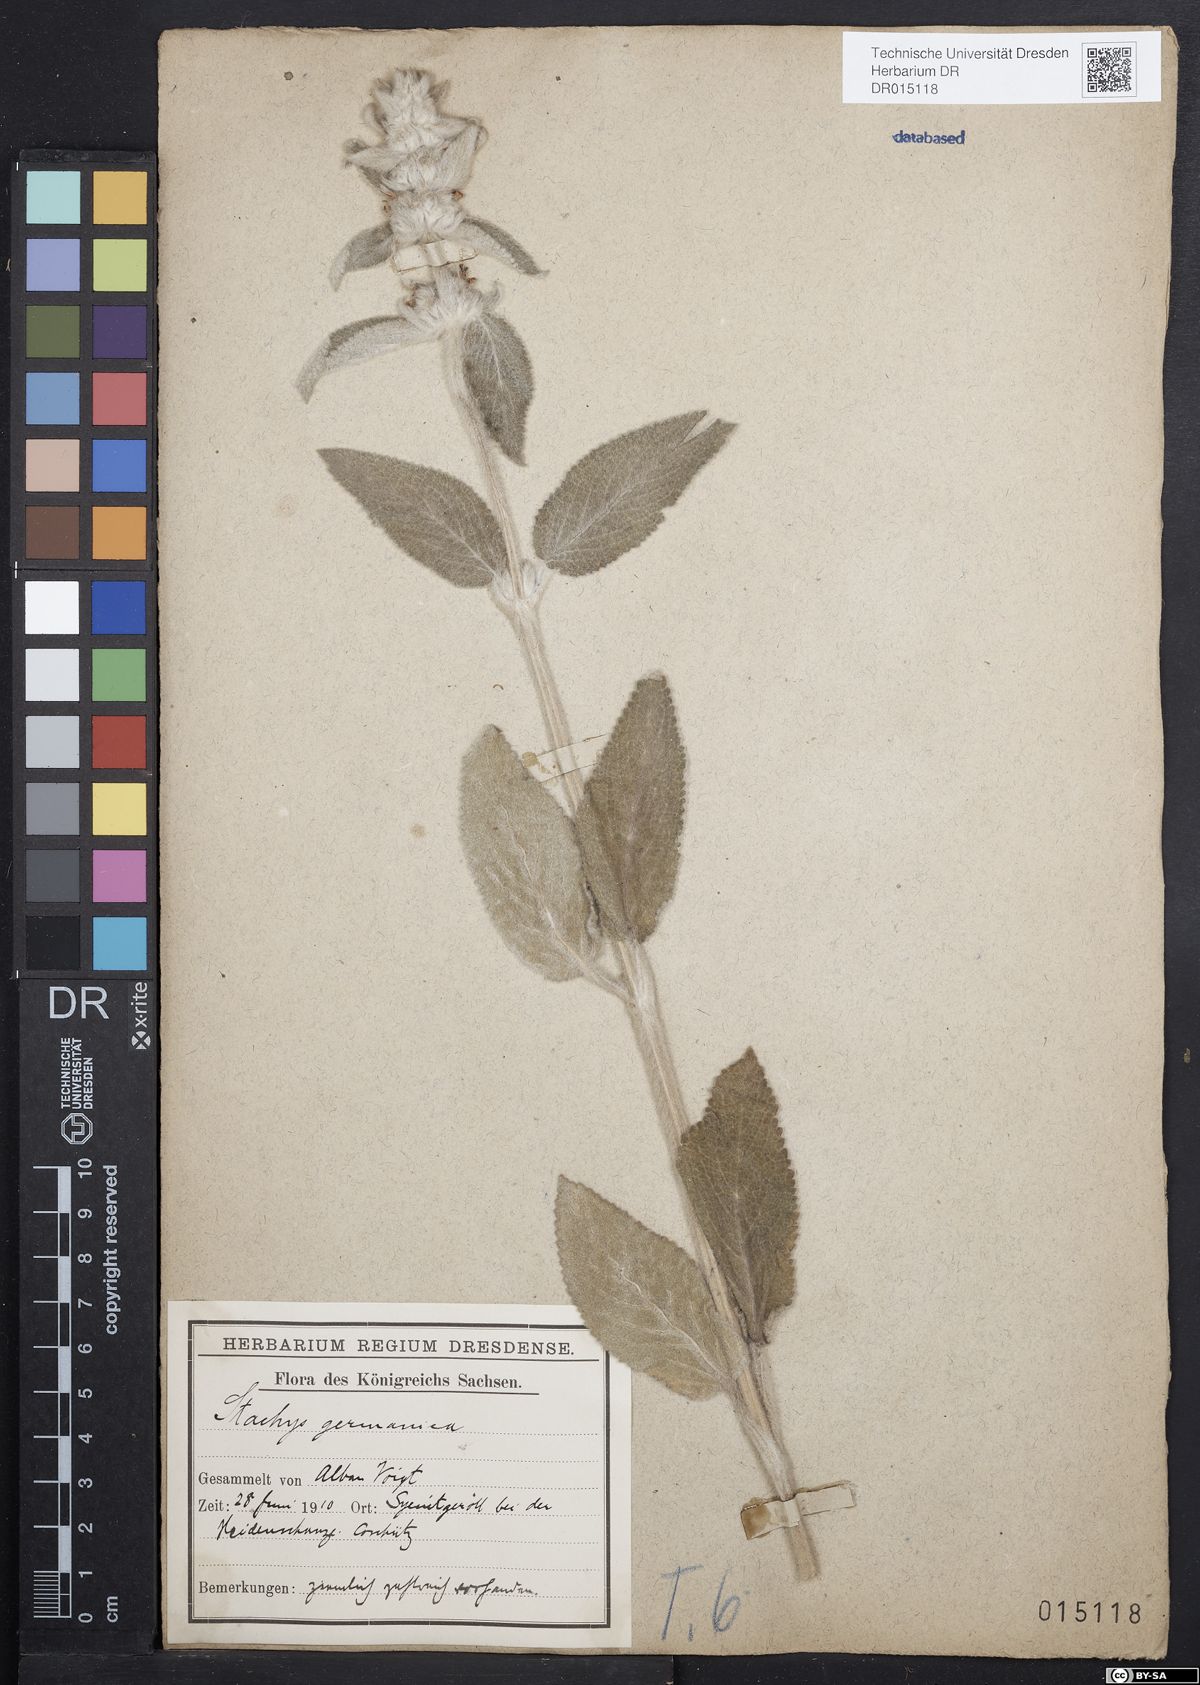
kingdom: Plantae
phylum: Tracheophyta
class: Magnoliopsida
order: Lamiales
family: Lamiaceae
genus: Stachys
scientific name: Stachys germanica
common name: Downy woundwort
